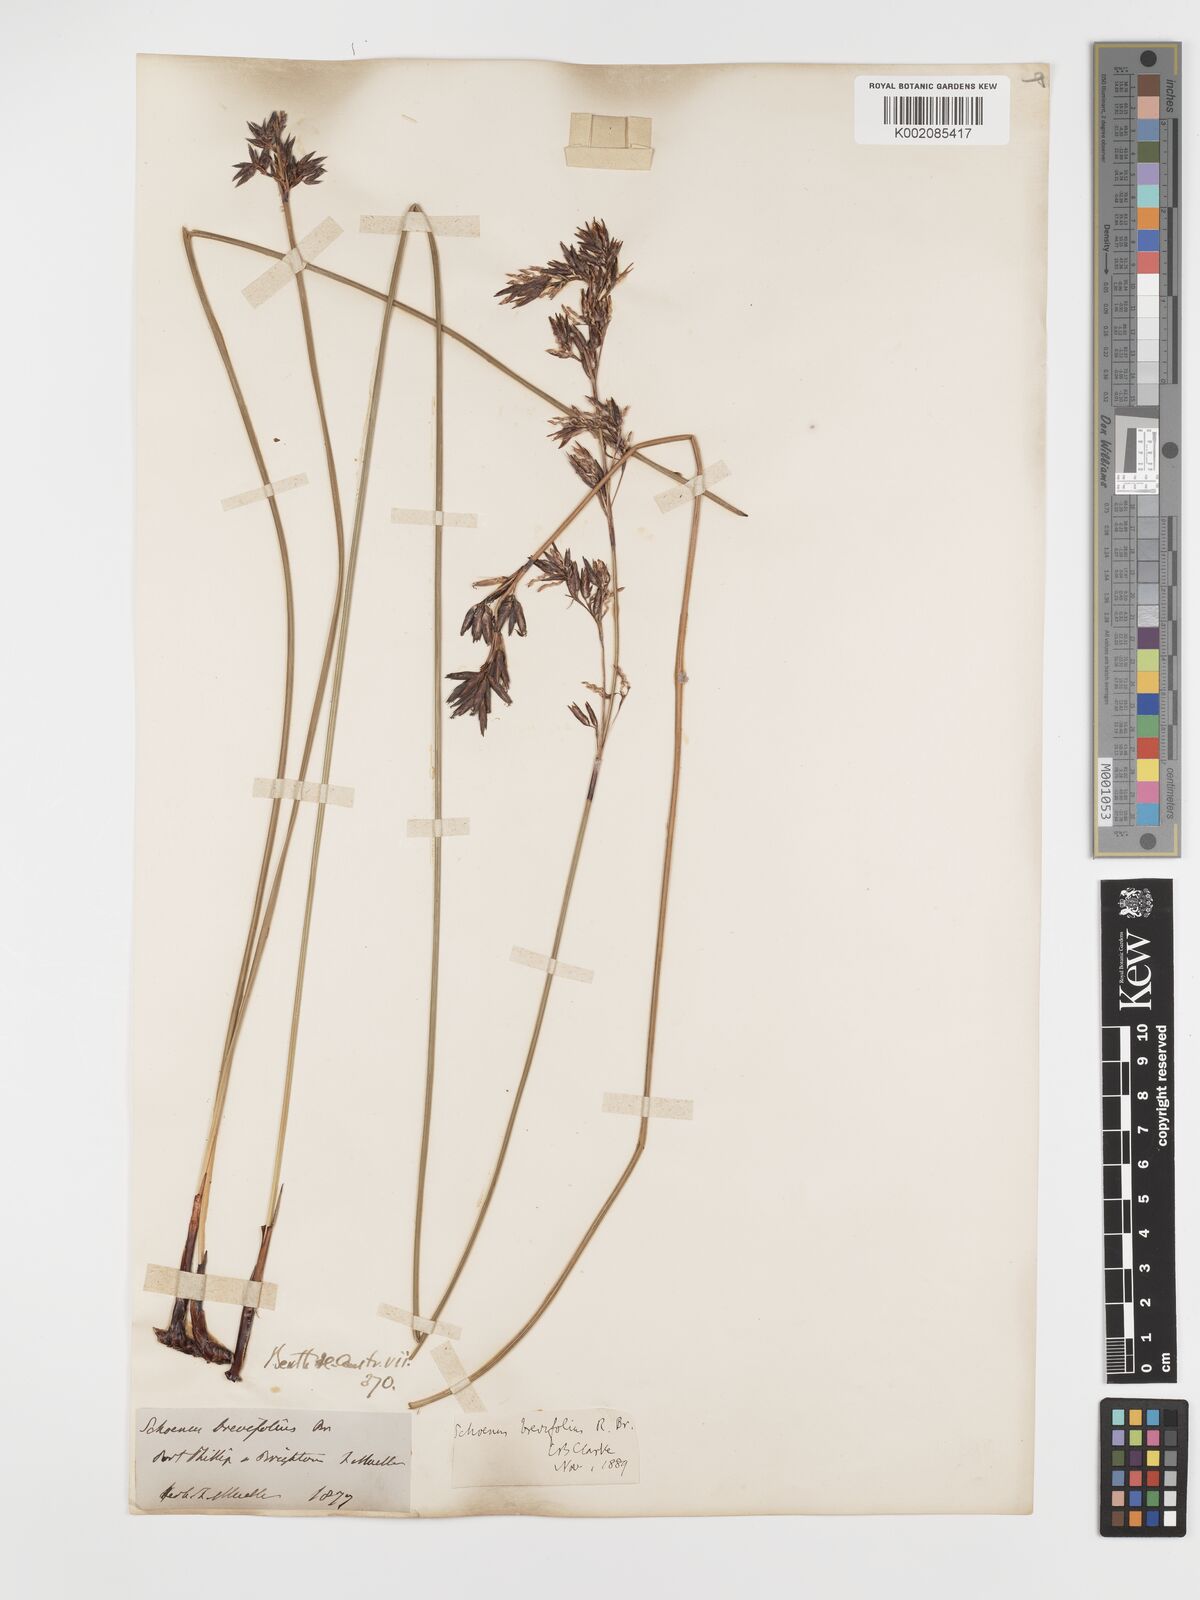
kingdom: Plantae
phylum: Tracheophyta
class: Liliopsida
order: Poales
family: Cyperaceae
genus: Schoenus
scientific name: Schoenus brevifolius
